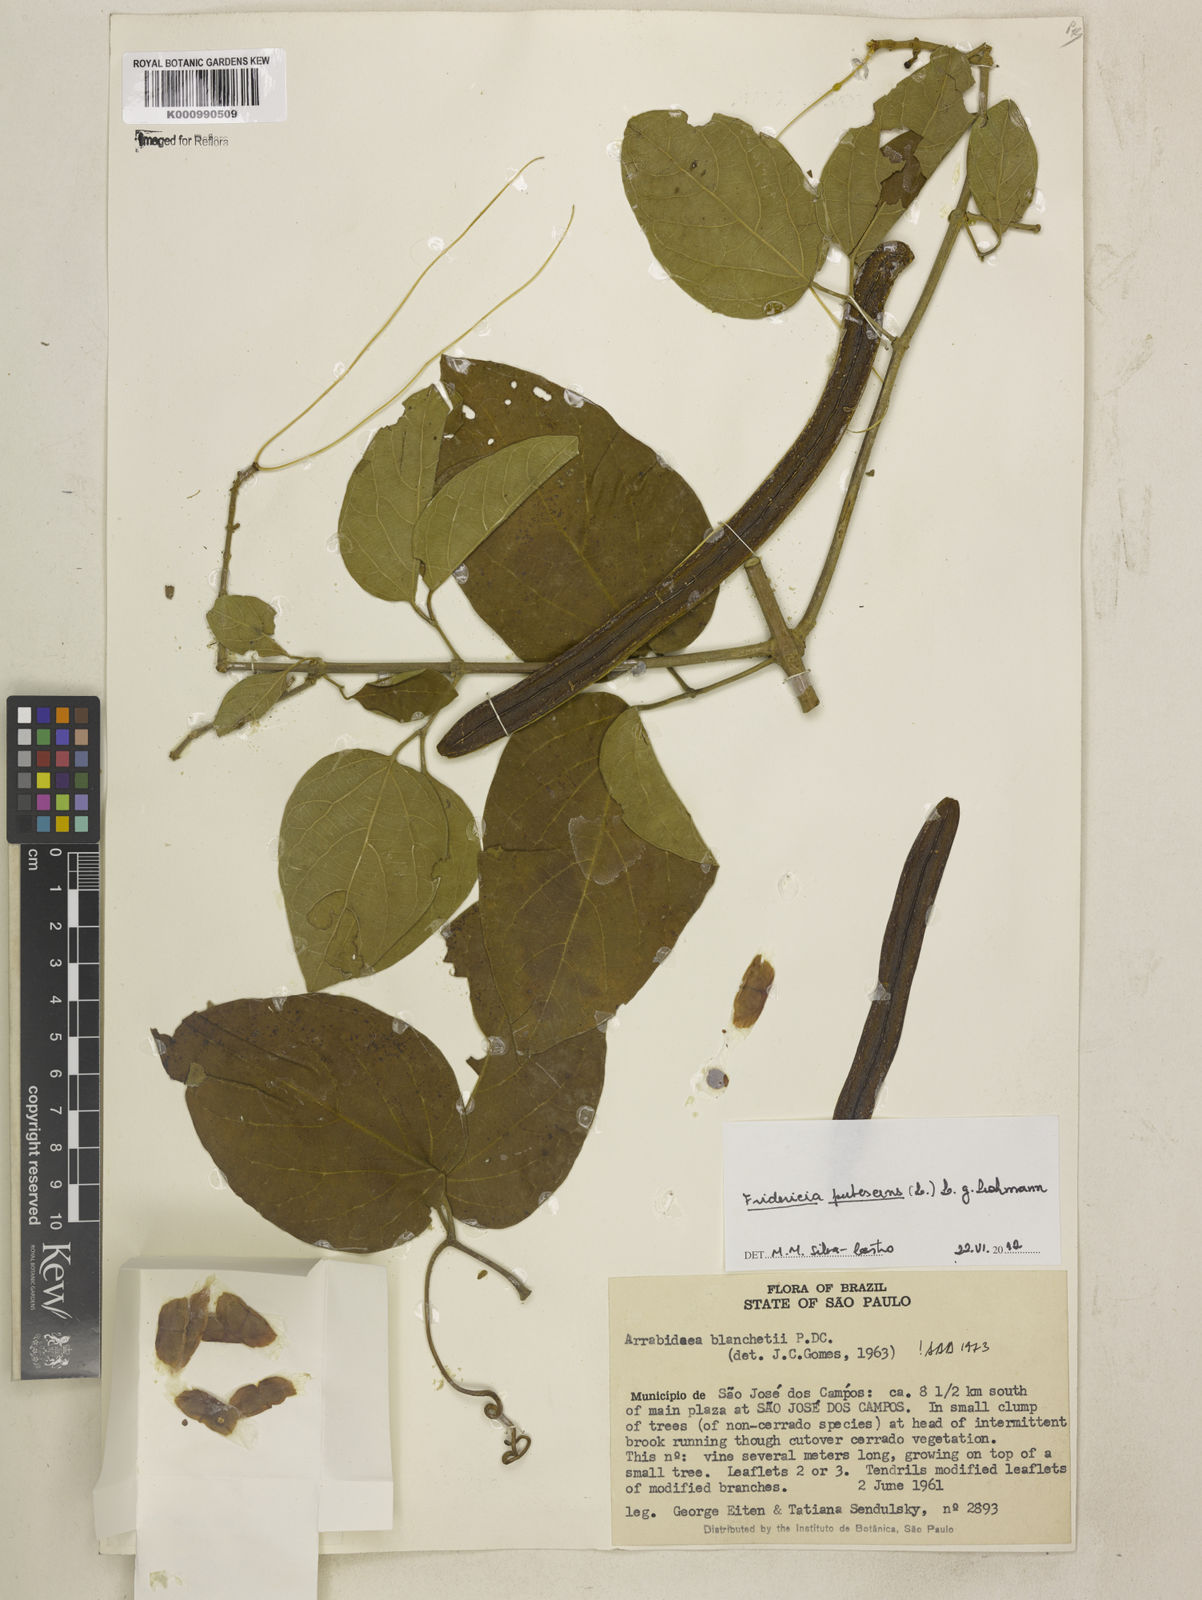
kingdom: Plantae
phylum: Tracheophyta
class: Magnoliopsida
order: Lamiales
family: Bignoniaceae
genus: Fridericia
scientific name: Fridericia pubescens
